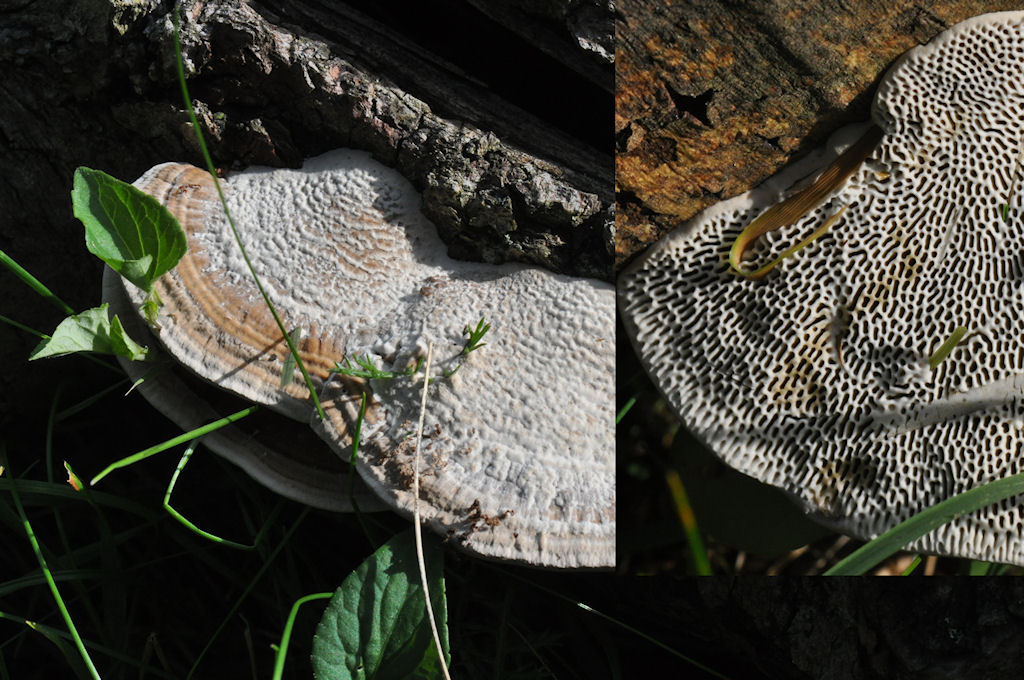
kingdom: Fungi
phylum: Basidiomycota
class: Agaricomycetes
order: Polyporales
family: Polyporaceae
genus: Daedaleopsis
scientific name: Daedaleopsis confragosa
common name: rødmende læderporesvamp
